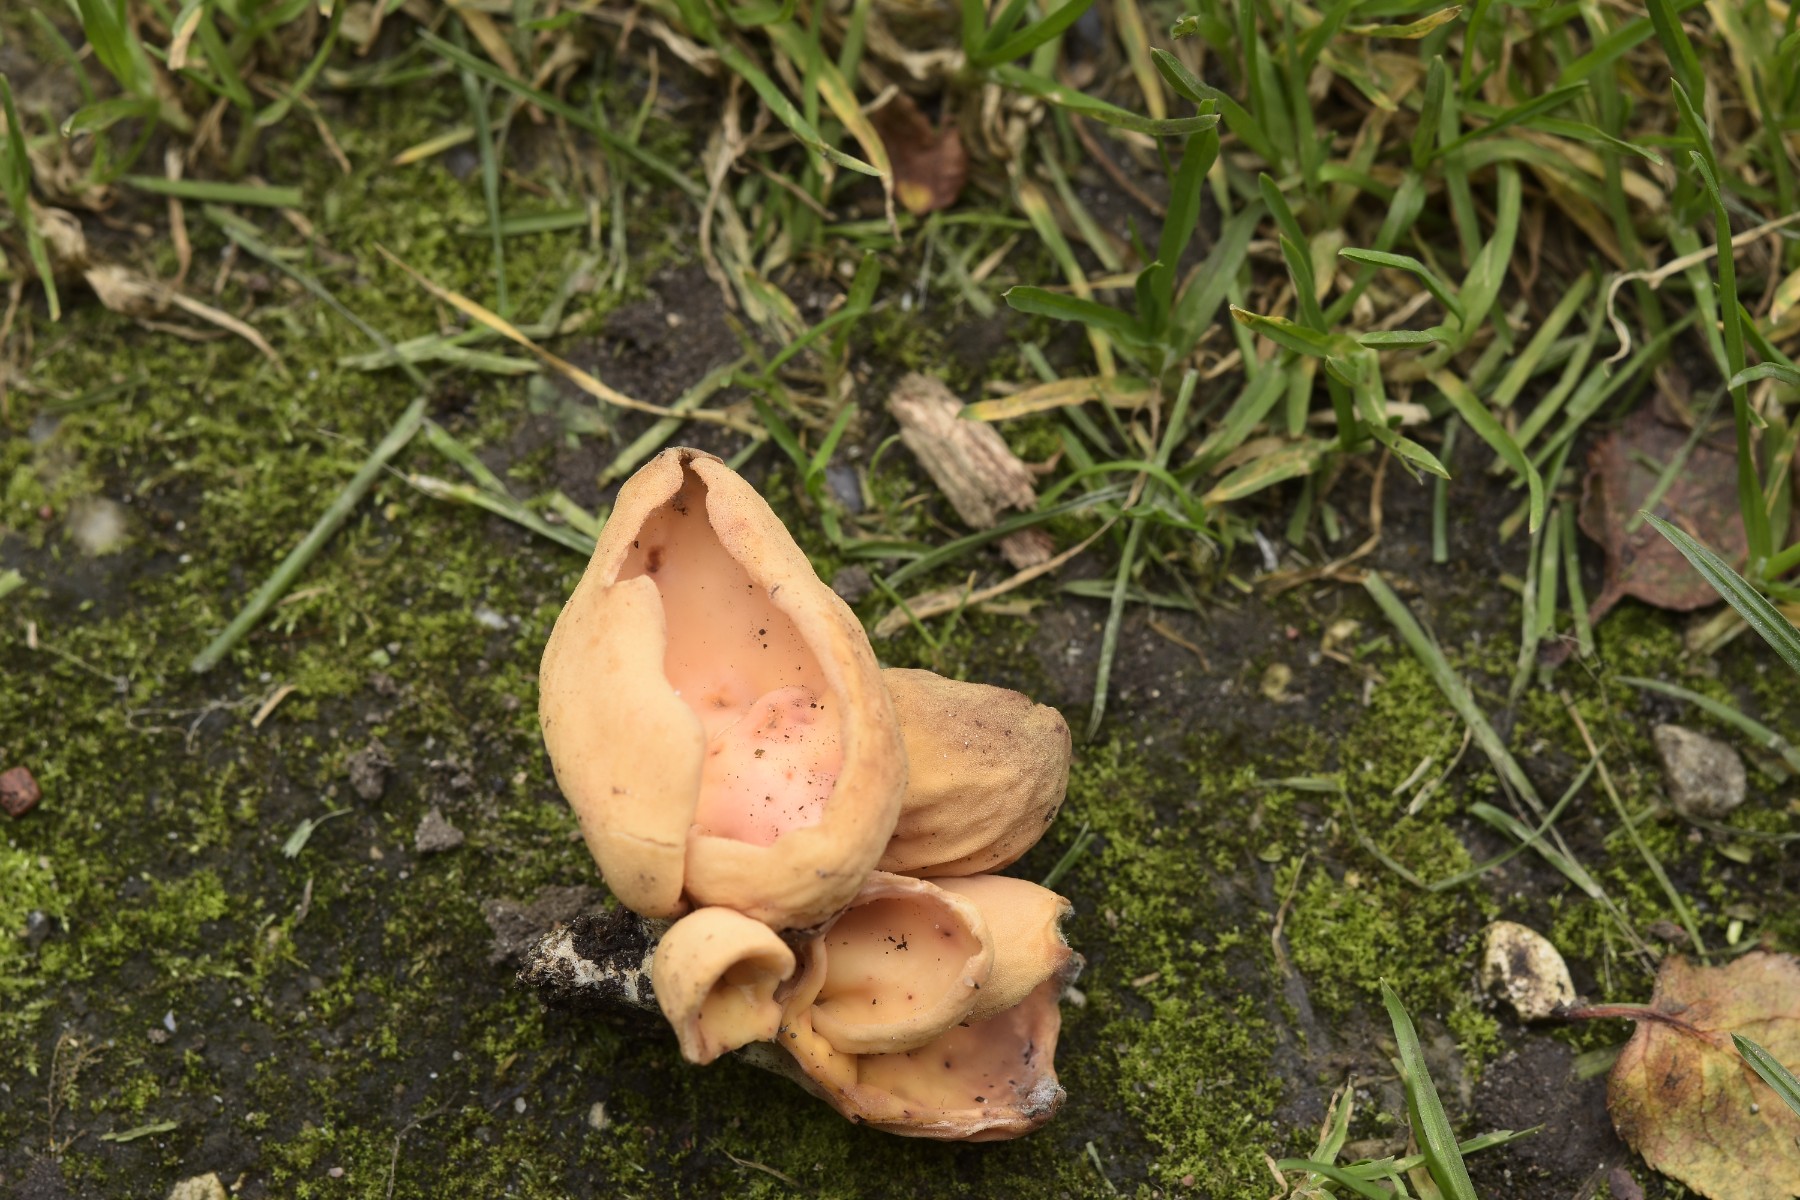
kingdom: Fungi
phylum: Ascomycota
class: Pezizomycetes
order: Pezizales
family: Otideaceae
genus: Otidea
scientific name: Otidea onotica
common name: æsel-ørebæger
